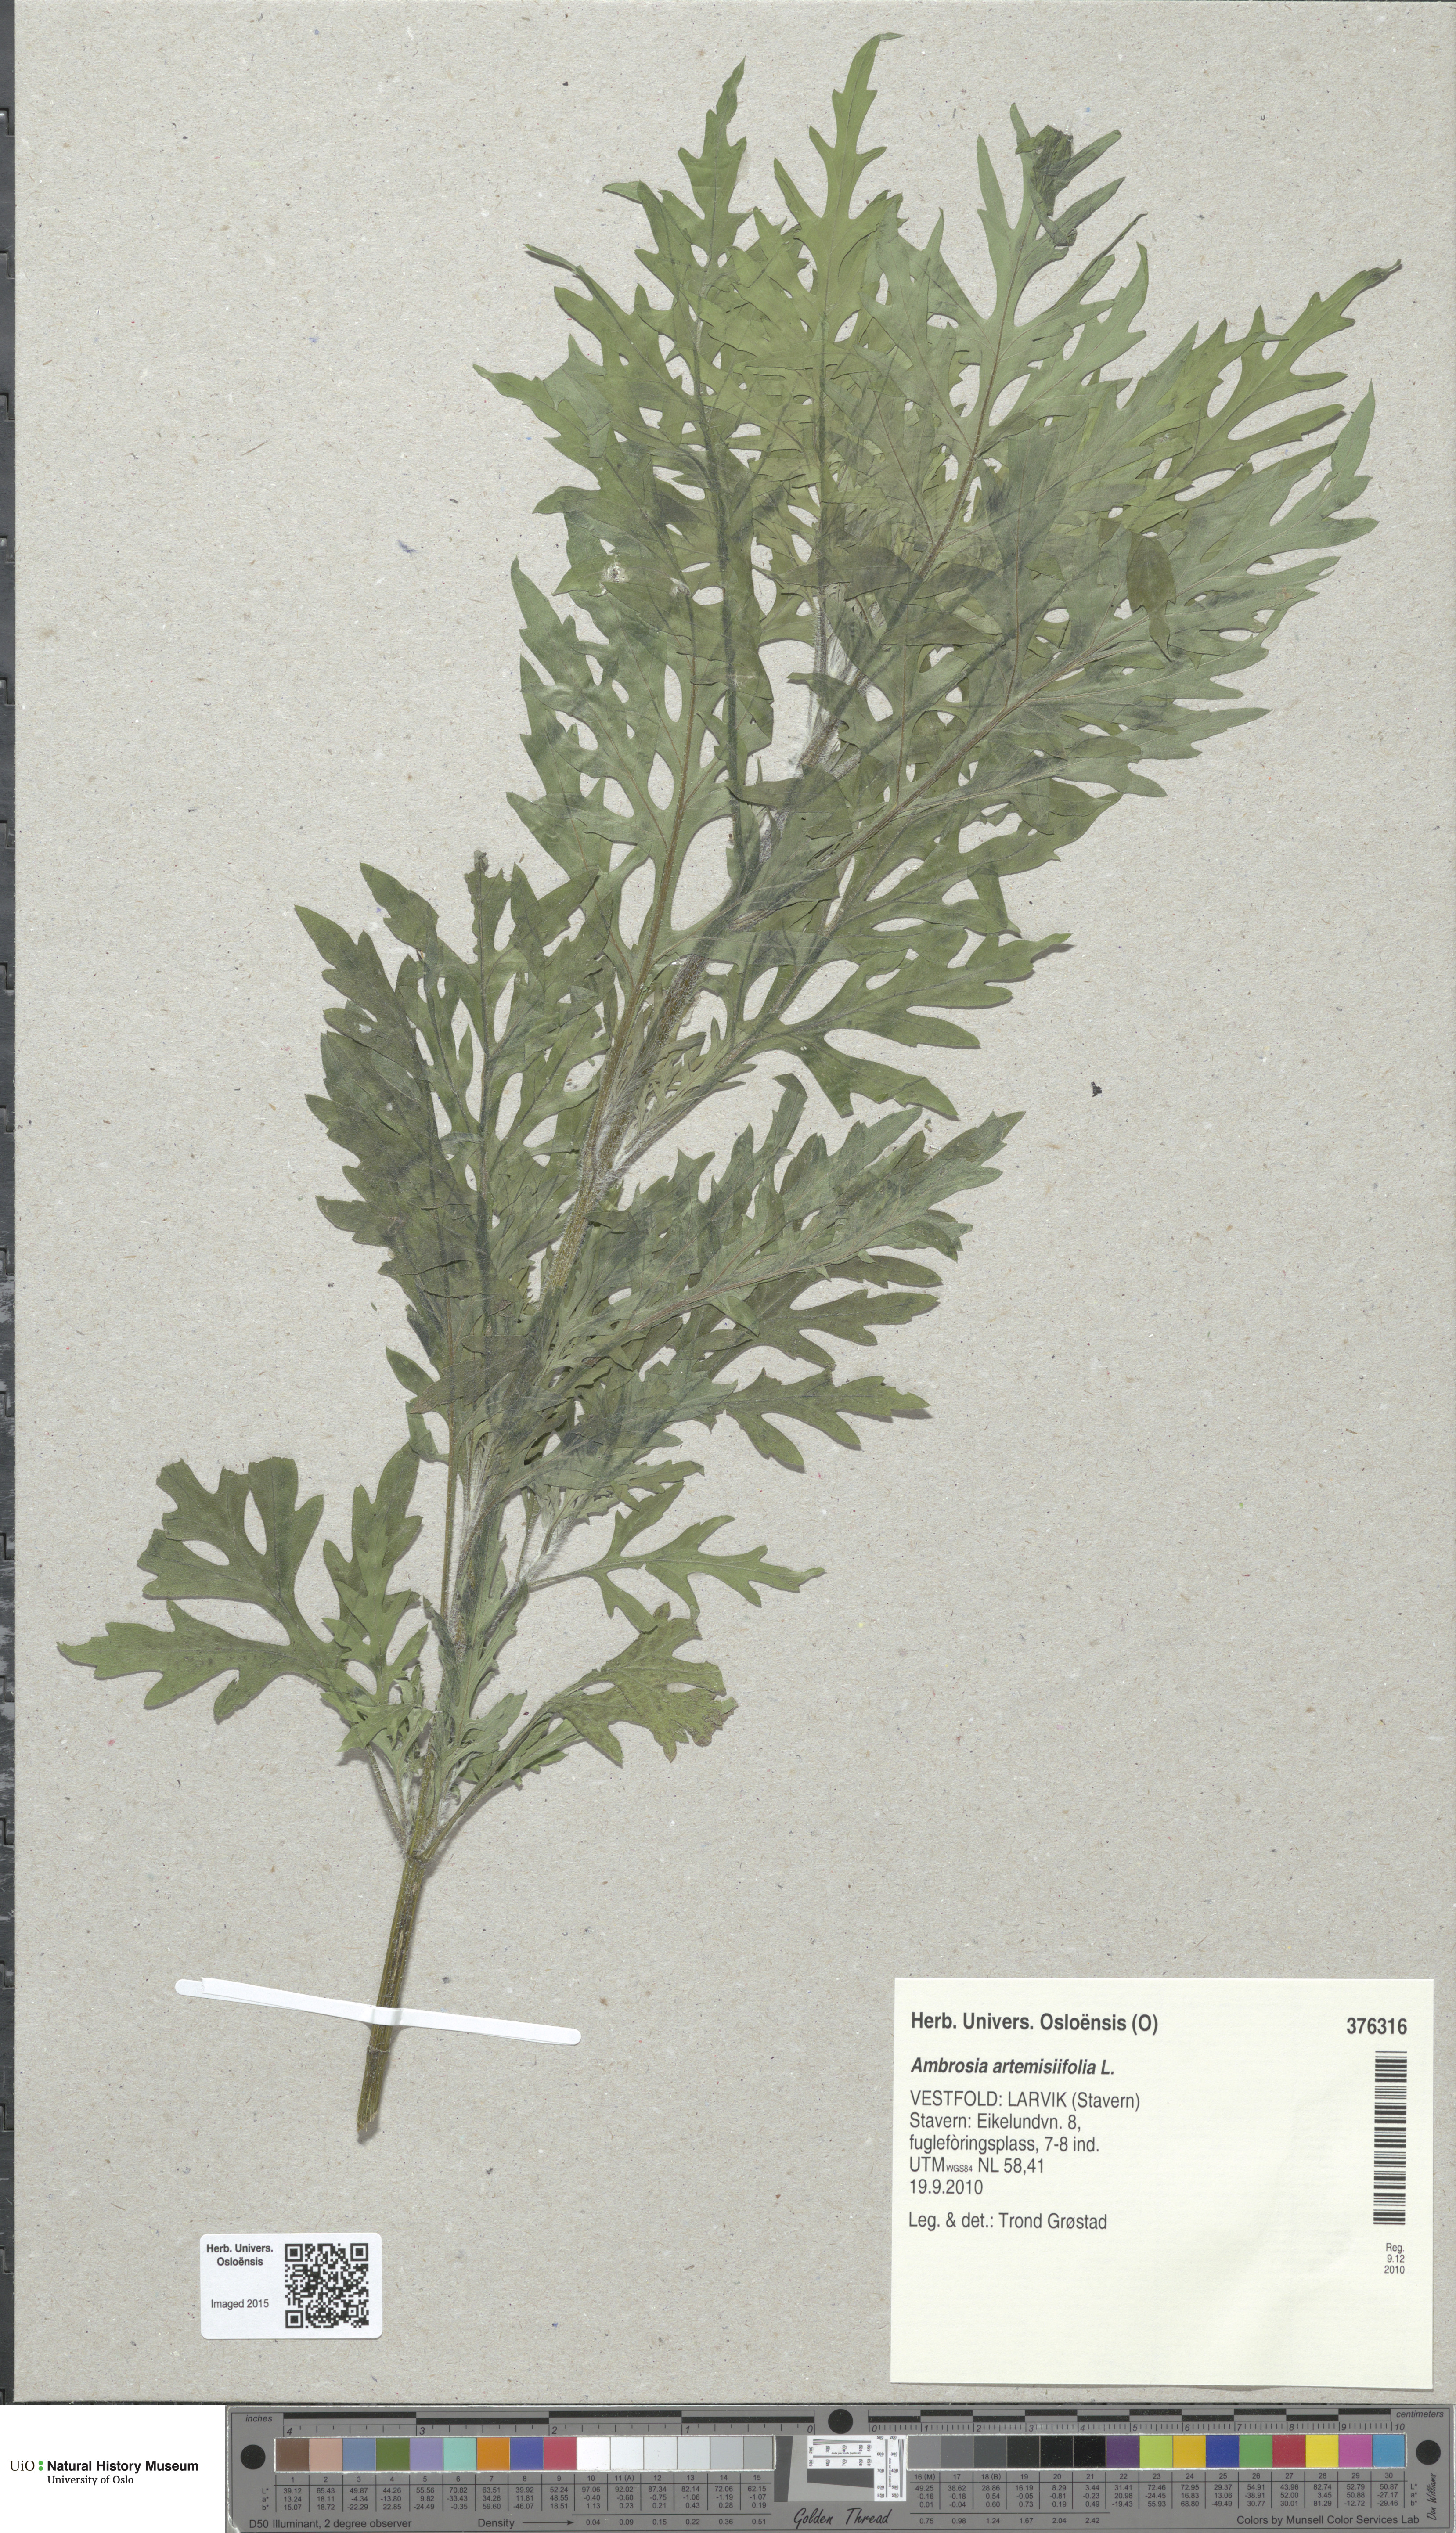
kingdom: Plantae
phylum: Tracheophyta
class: Magnoliopsida
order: Asterales
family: Asteraceae
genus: Ambrosia
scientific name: Ambrosia artemisiifolia
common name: Annual ragweed
